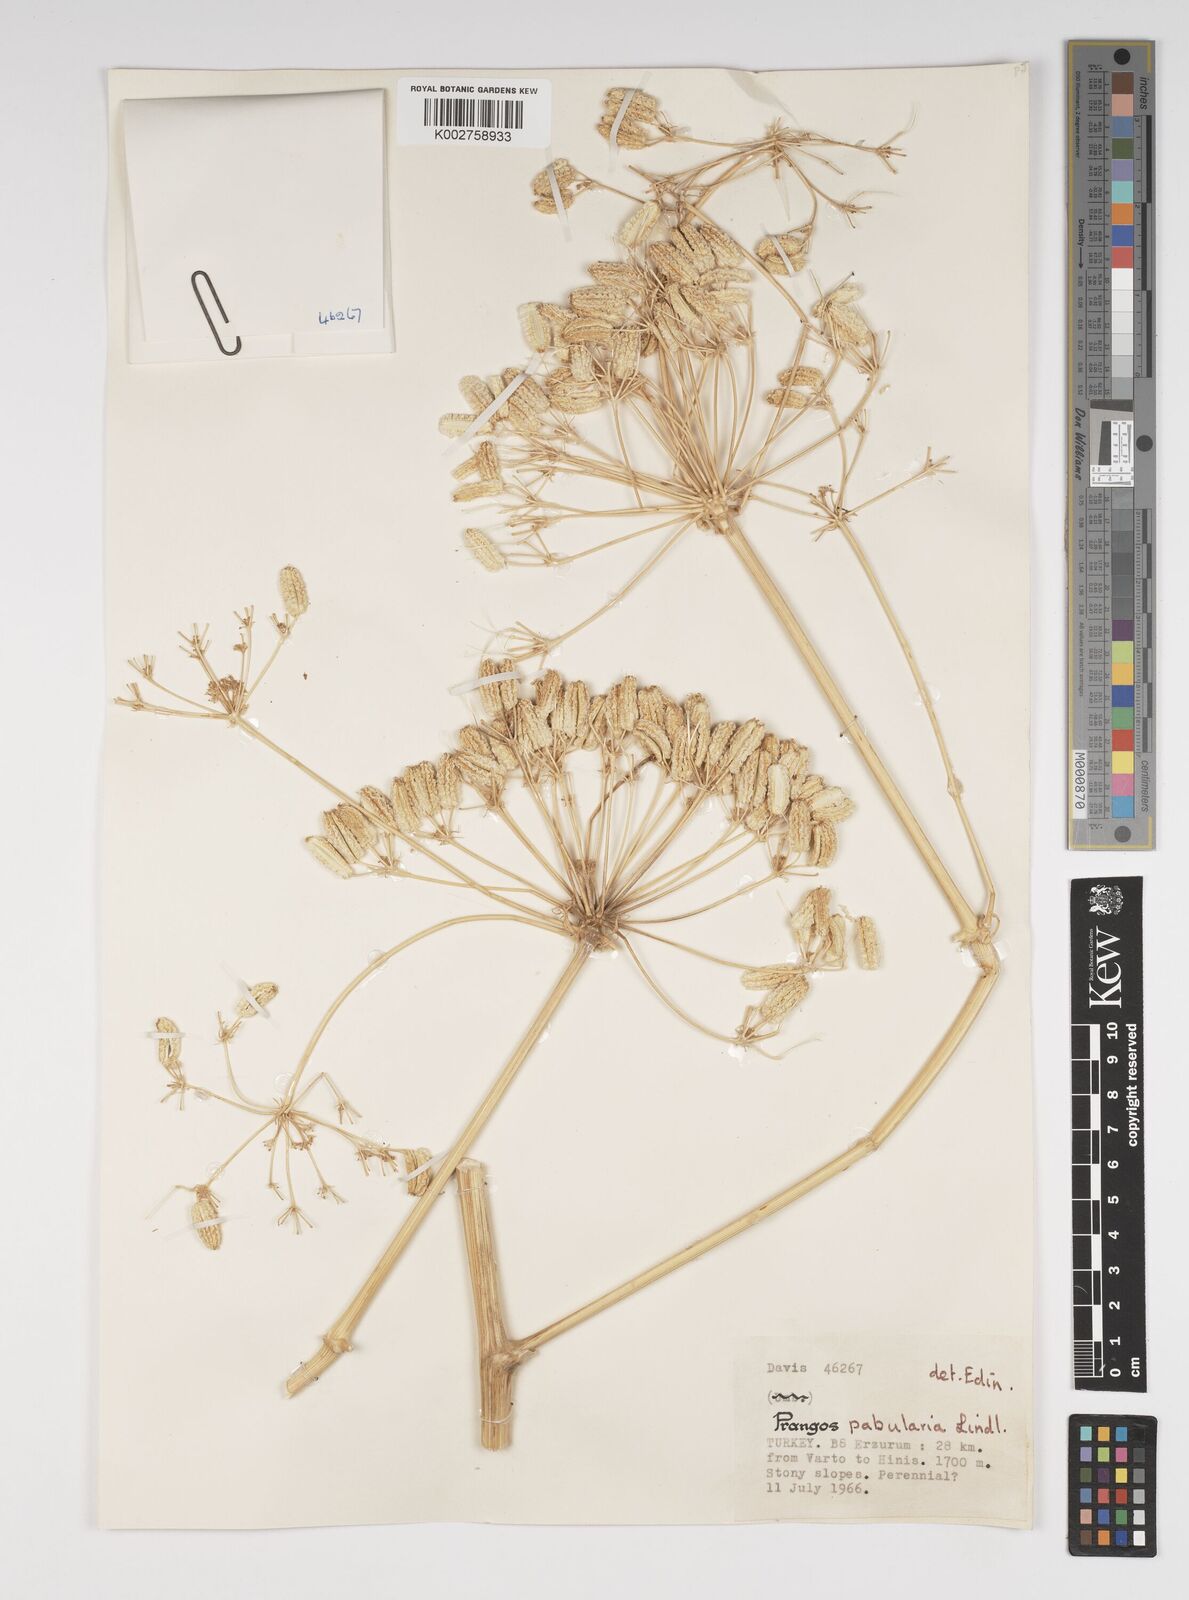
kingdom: Plantae
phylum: Tracheophyta
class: Magnoliopsida
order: Apiales
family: Apiaceae
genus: Prangos
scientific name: Prangos pabularia
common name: Yugan
